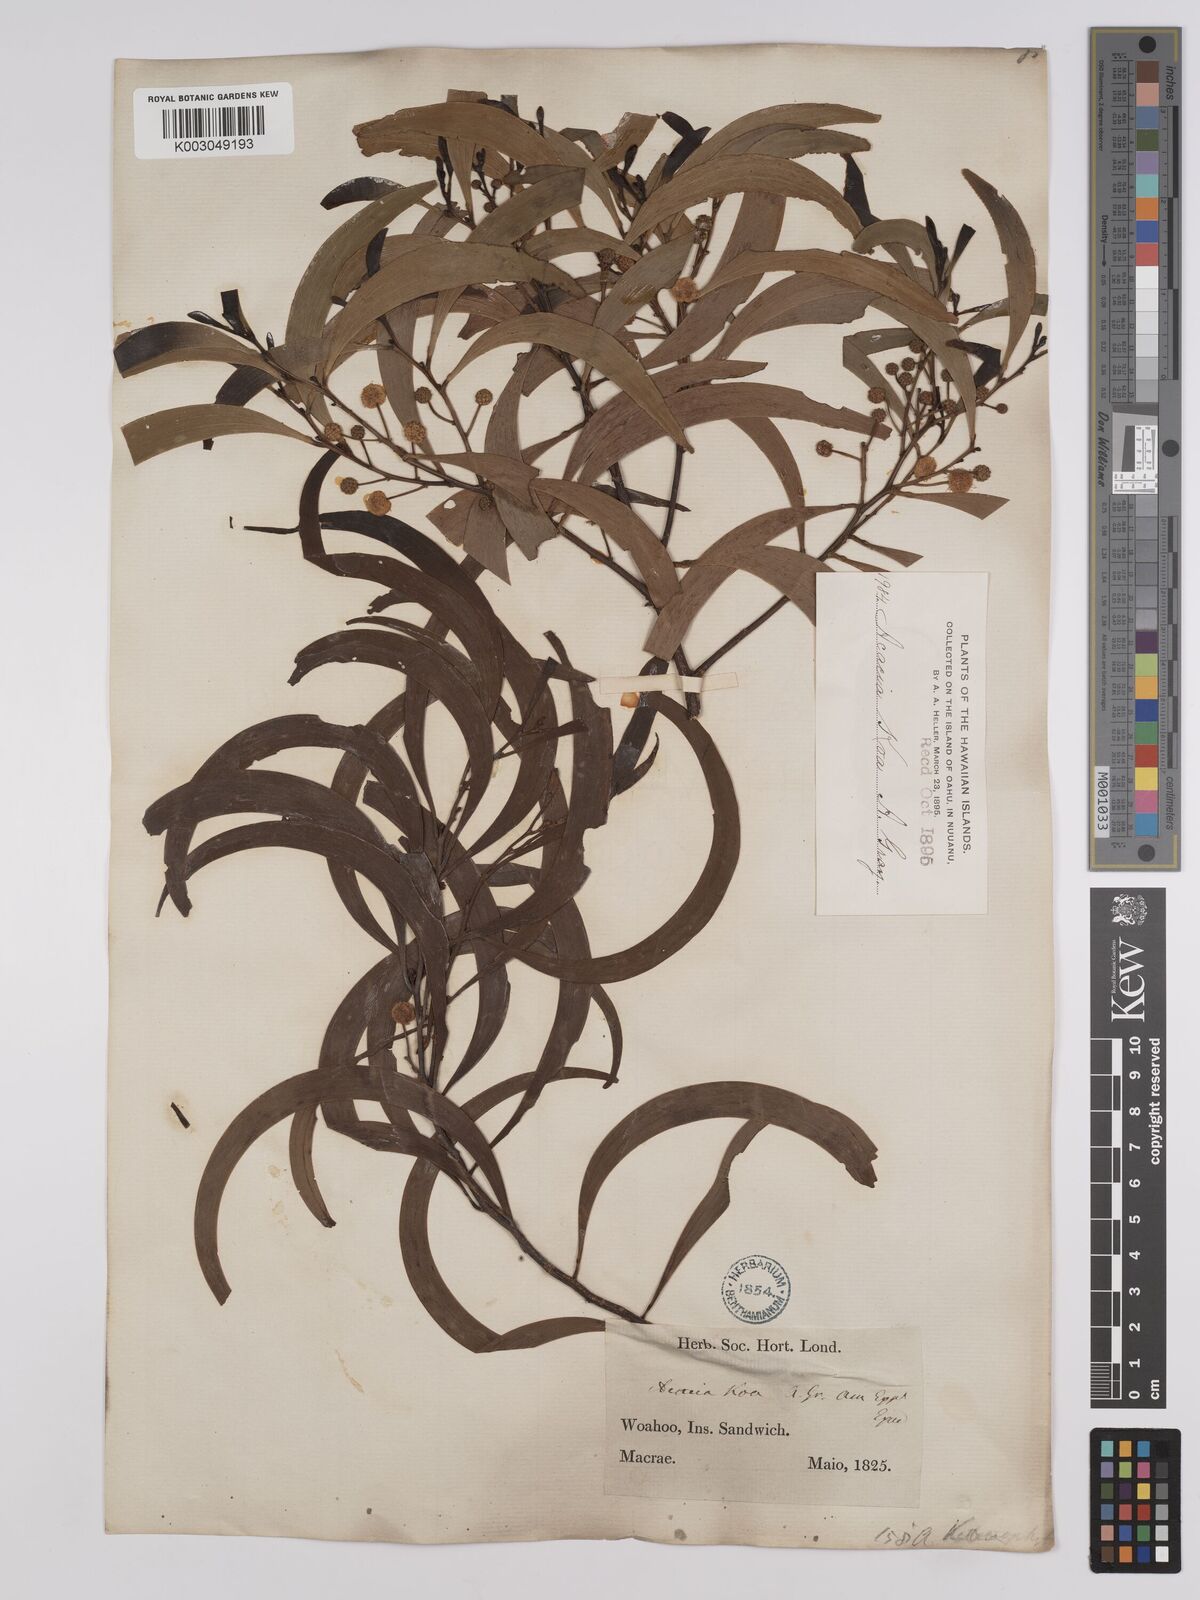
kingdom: Plantae
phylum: Tracheophyta
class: Magnoliopsida
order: Fabales
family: Fabaceae
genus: Acacia
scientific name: Acacia koa
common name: Gray koa
